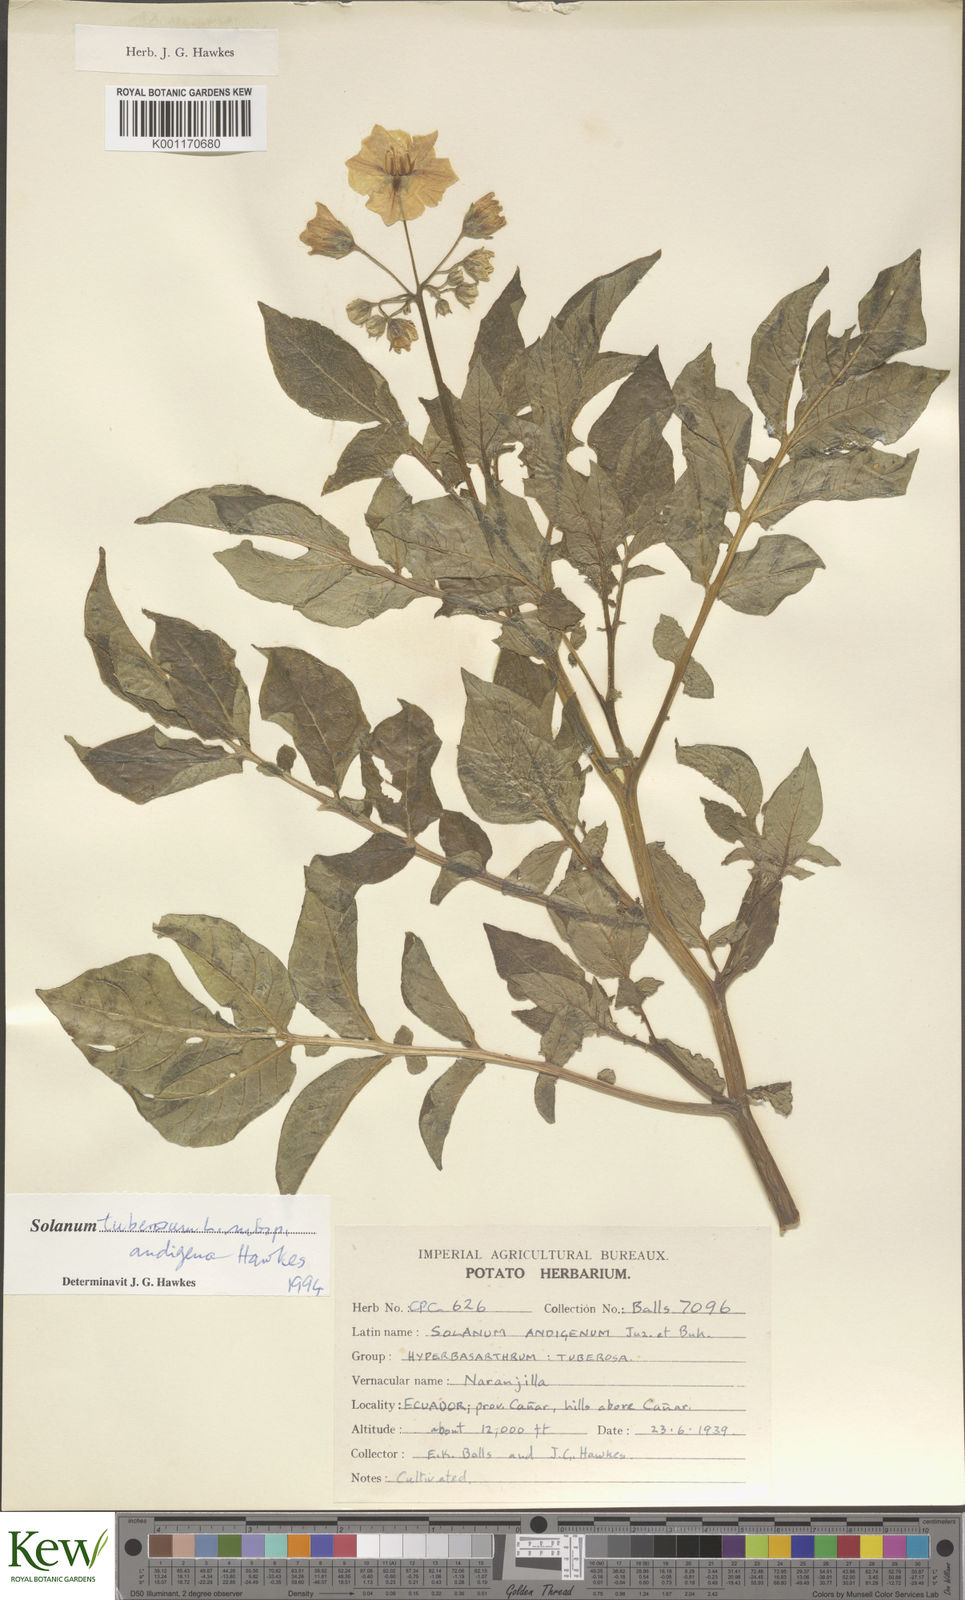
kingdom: Plantae
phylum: Tracheophyta
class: Magnoliopsida
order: Solanales
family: Solanaceae
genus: Solanum
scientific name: Solanum tuberosum
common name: Potato
